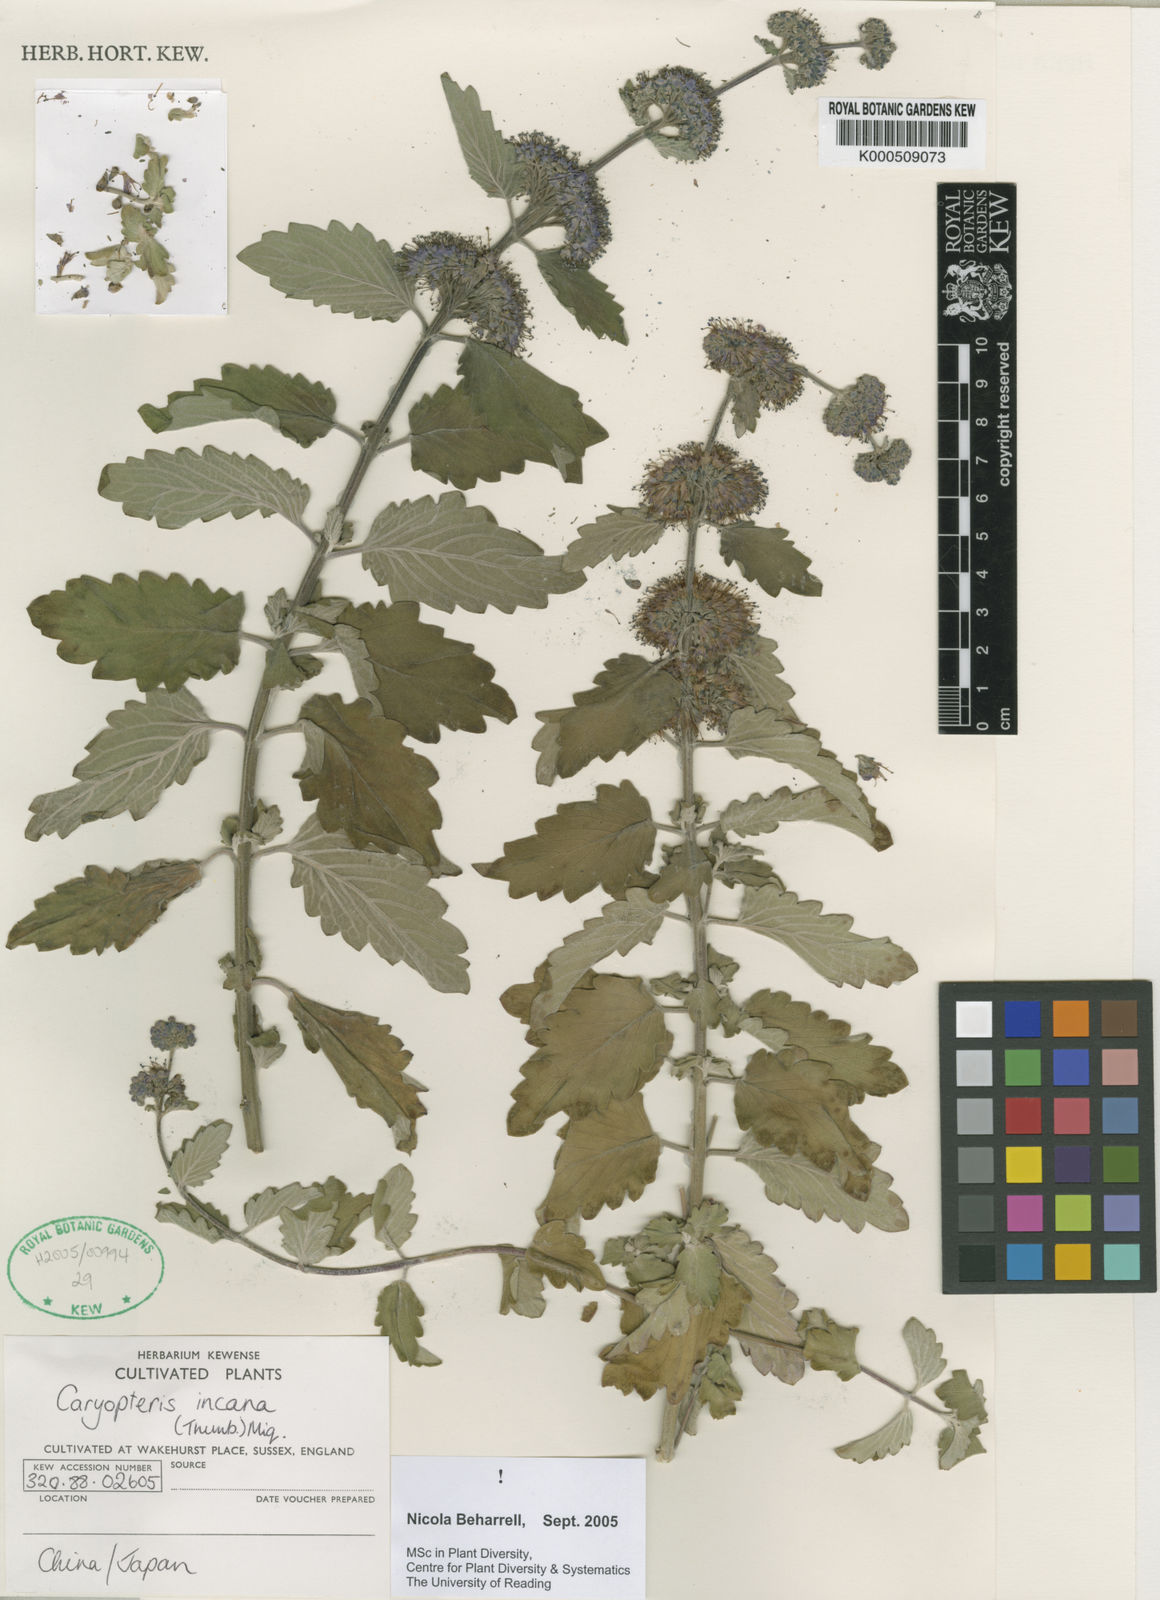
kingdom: Plantae
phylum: Tracheophyta
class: Magnoliopsida
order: Lamiales
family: Lamiaceae
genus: Caryopteris
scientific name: Caryopteris incana
